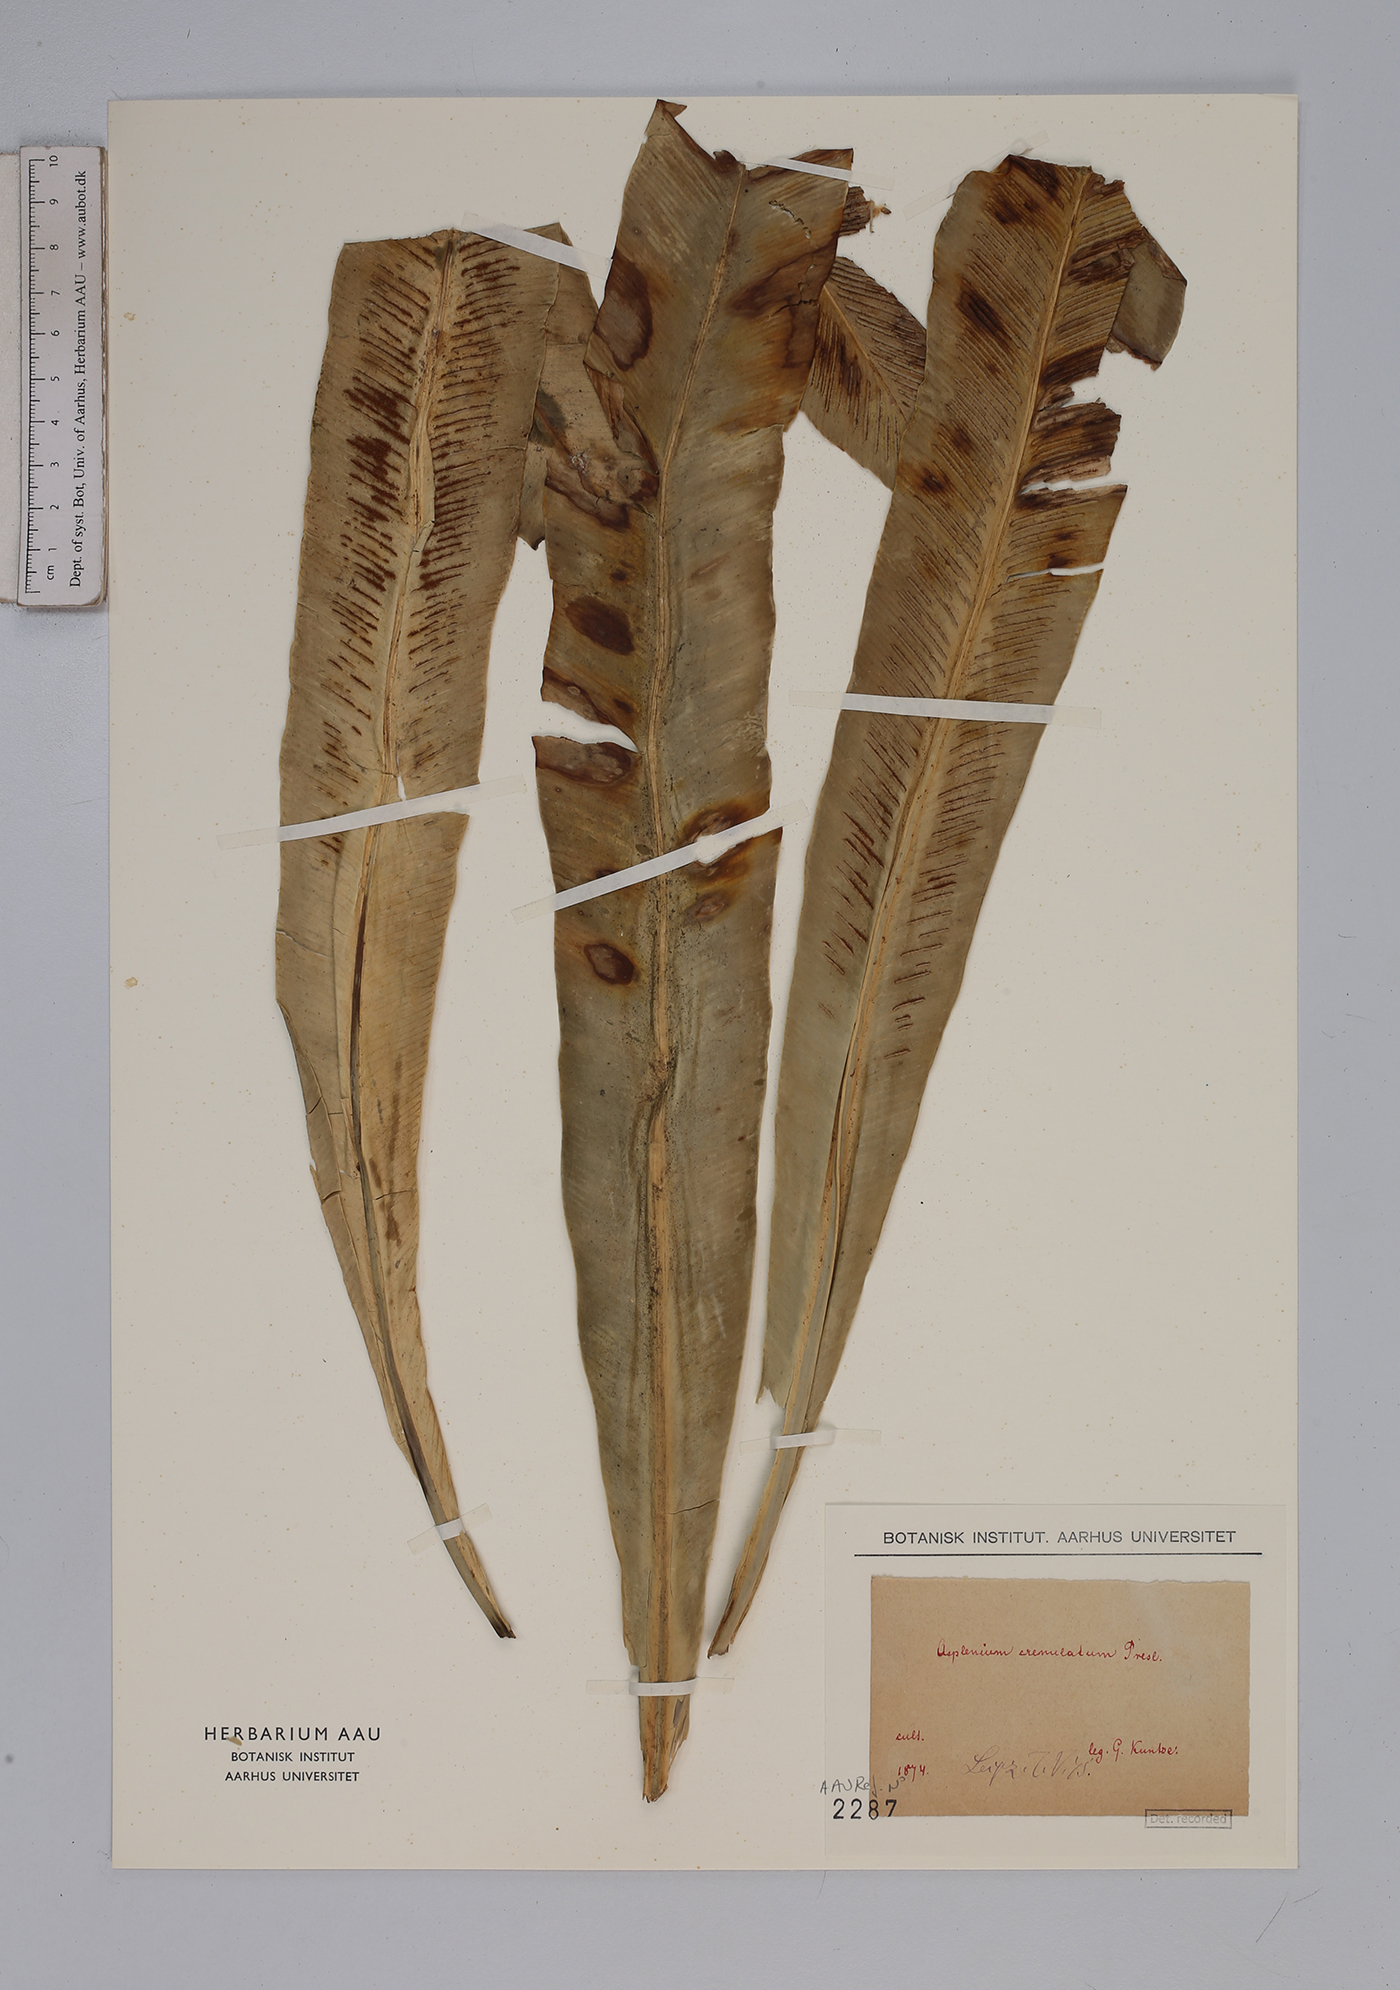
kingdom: Plantae
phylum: Tracheophyta
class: Polypodiopsida
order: Polypodiales
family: Aspleniaceae
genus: Asplenium
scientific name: Asplenium serratum
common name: Wild birdnest fern
